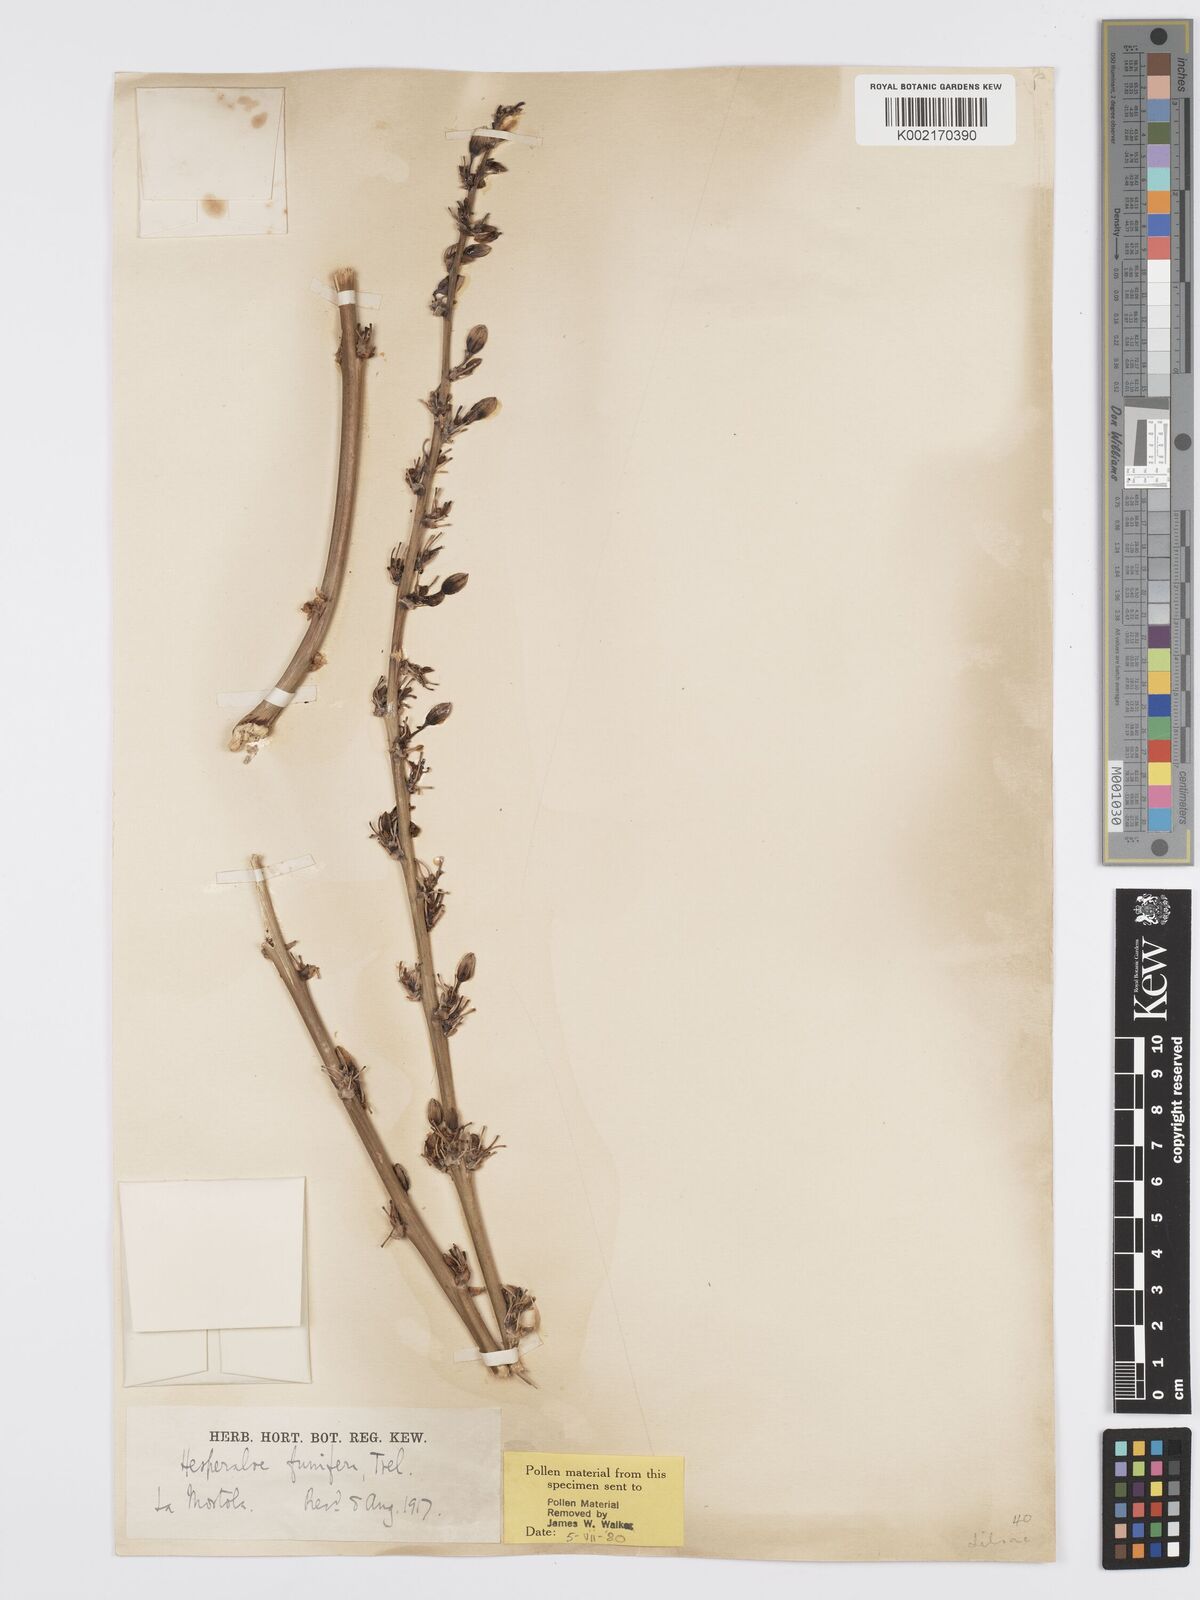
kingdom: Plantae
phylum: Tracheophyta
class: Liliopsida
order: Asparagales
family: Asparagaceae
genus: Hesperaloe
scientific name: Hesperaloe funifera
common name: Giant hesperaloe
